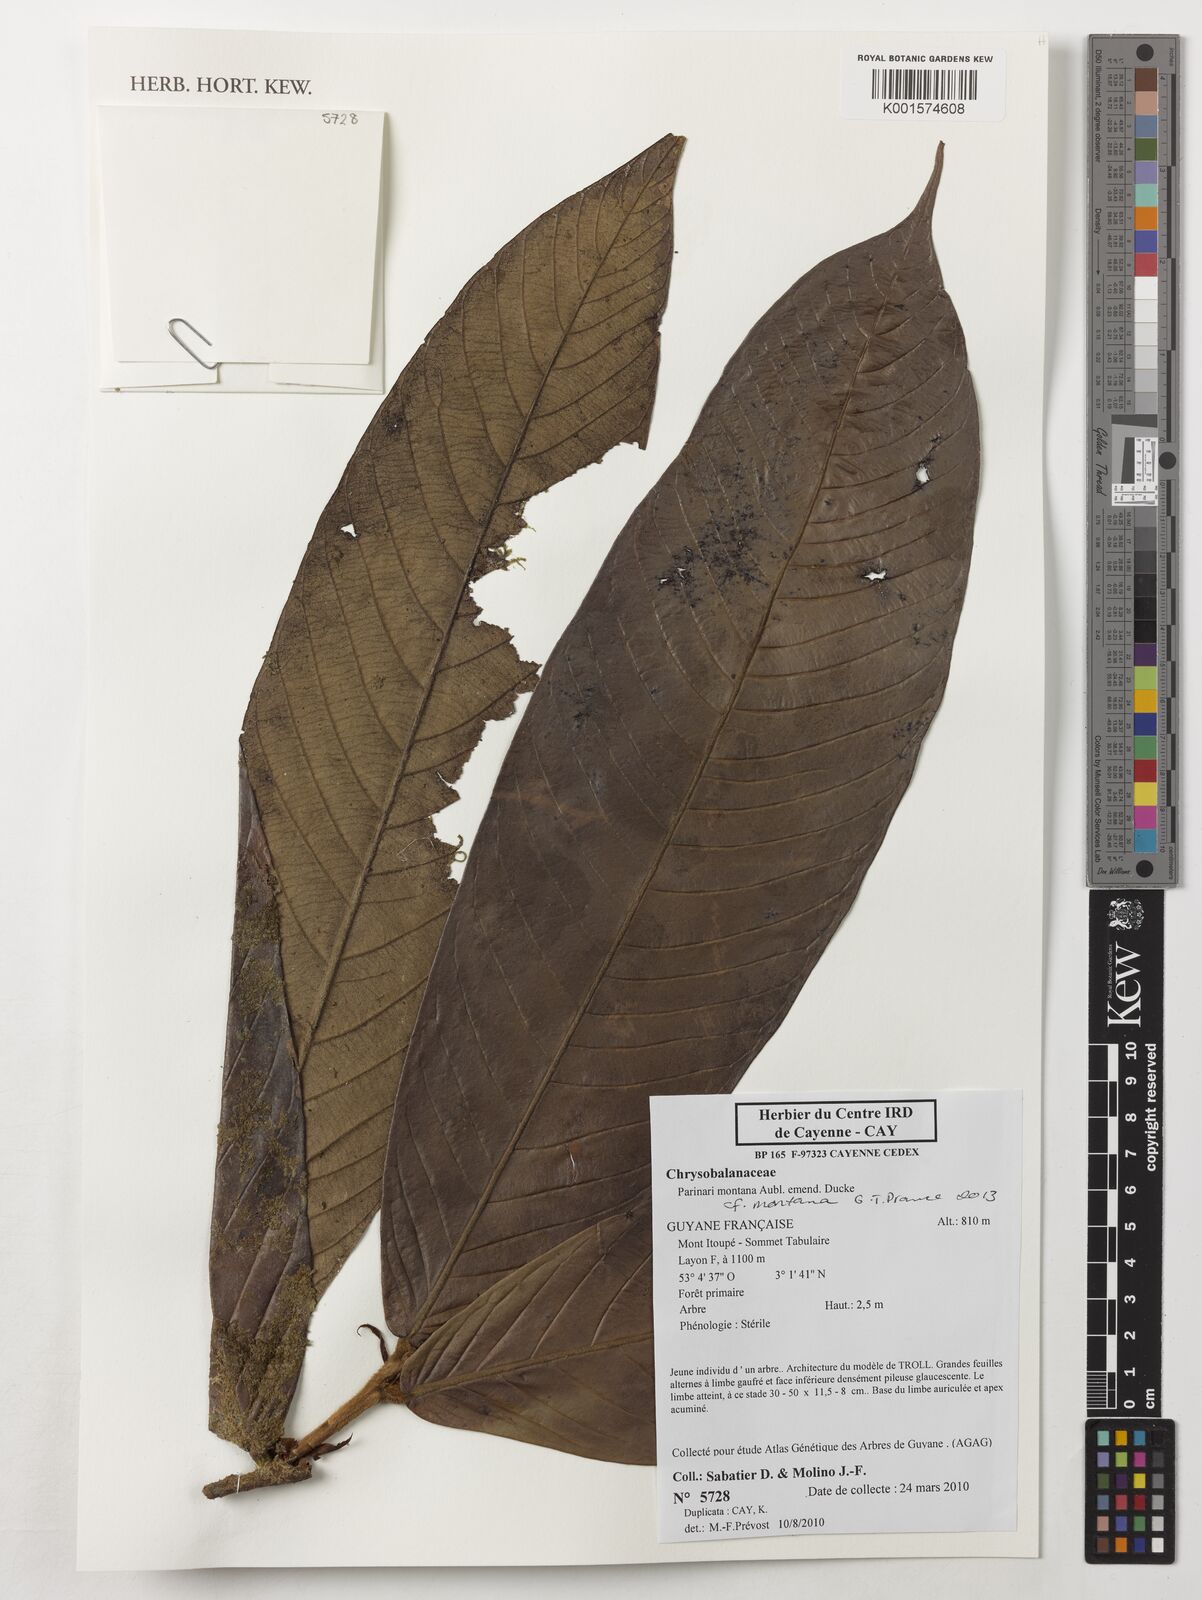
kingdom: Plantae
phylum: Tracheophyta
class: Magnoliopsida
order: Malpighiales
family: Chrysobalanaceae
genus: Parinari
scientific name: Parinari montana
